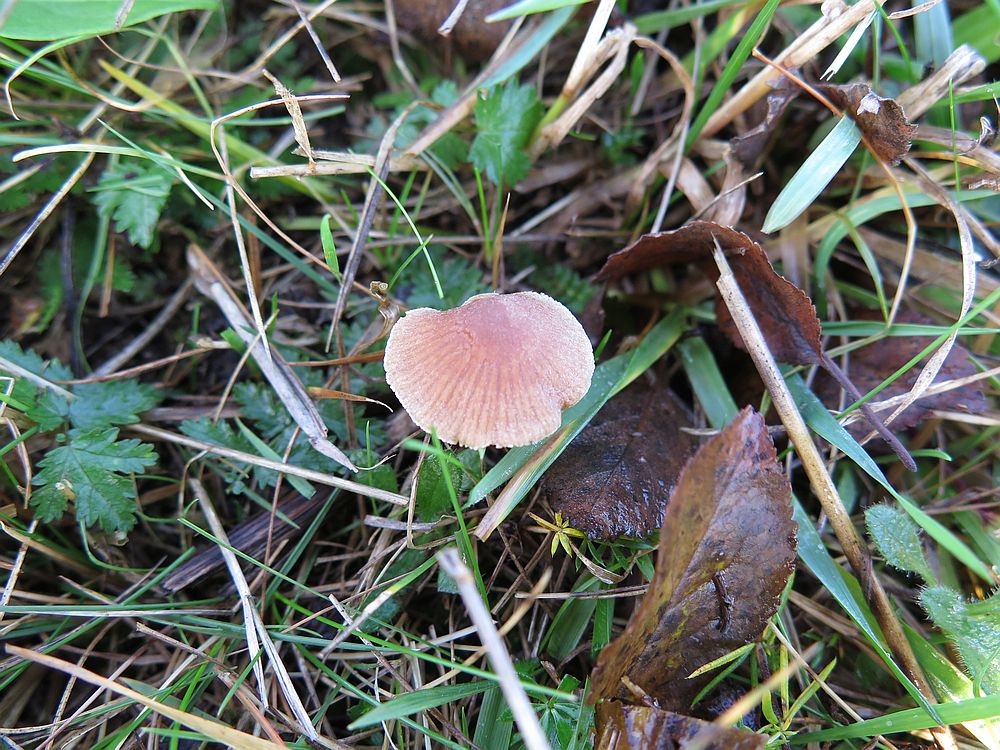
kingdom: Fungi
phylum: Basidiomycota
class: Agaricomycetes
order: Agaricales
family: Tubariaceae
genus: Tubaria
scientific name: Tubaria furfuracea
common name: kliddet fnughat
